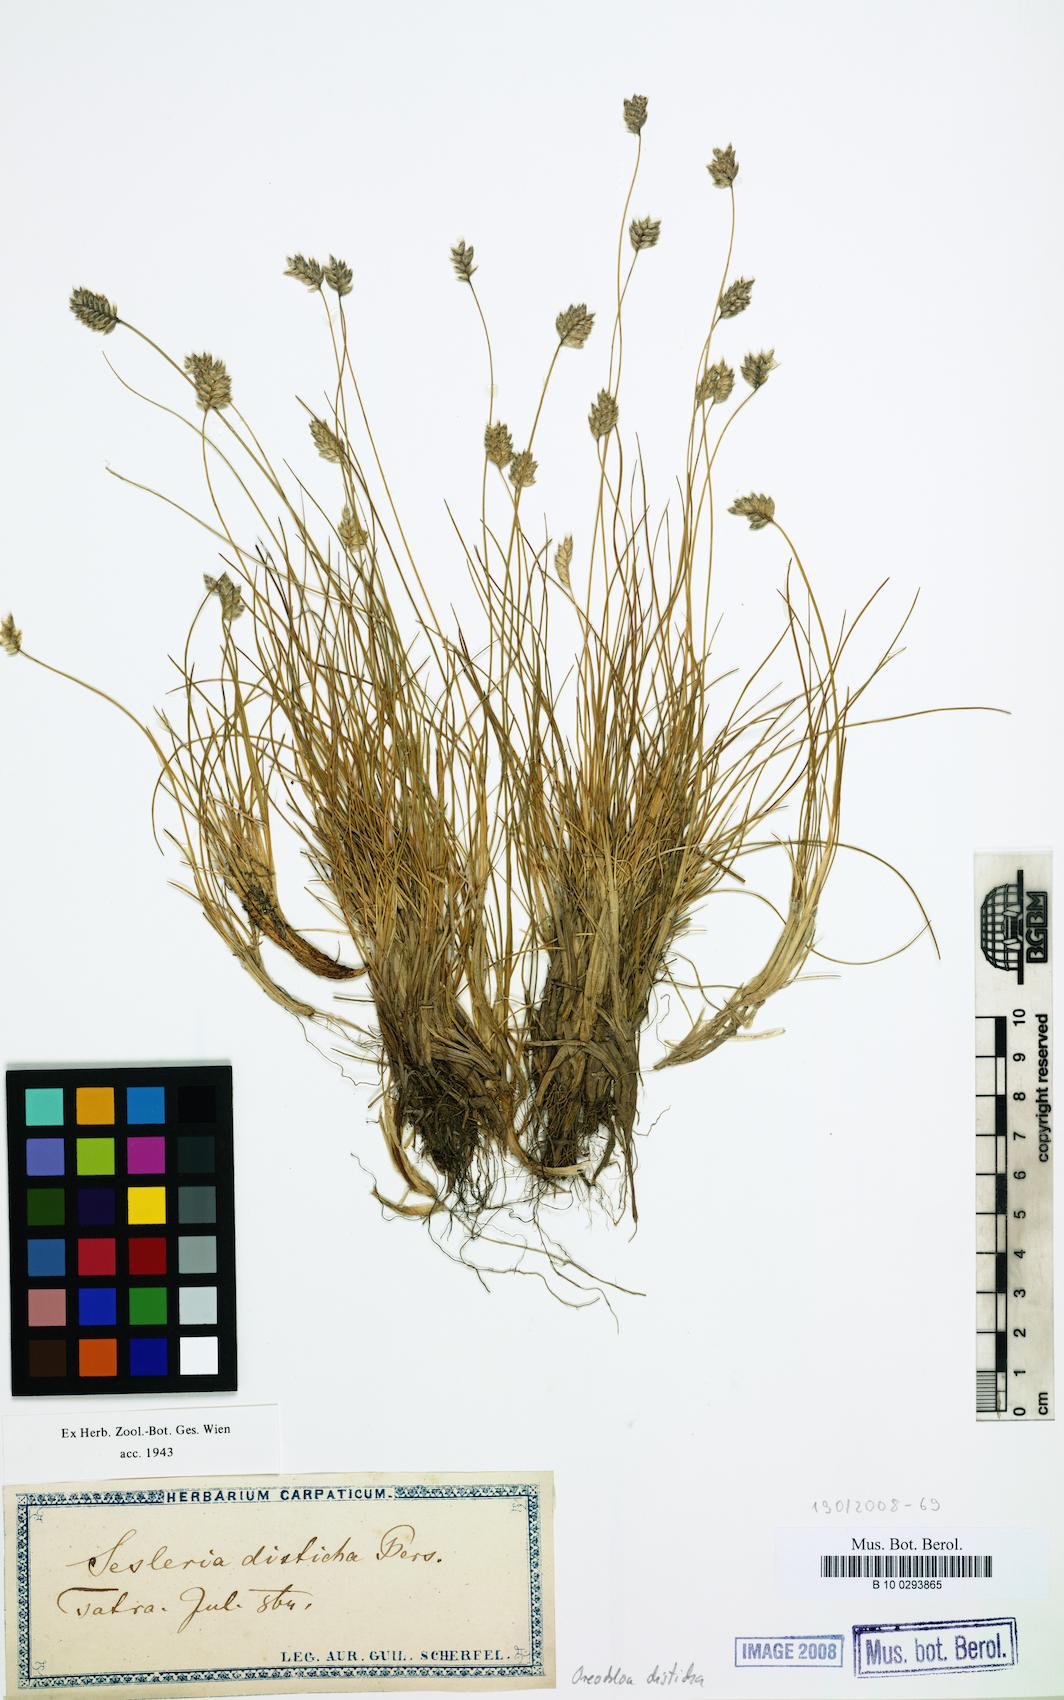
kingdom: Plantae
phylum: Tracheophyta
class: Liliopsida
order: Poales
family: Poaceae
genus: Oreochloa
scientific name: Oreochloa disticha
